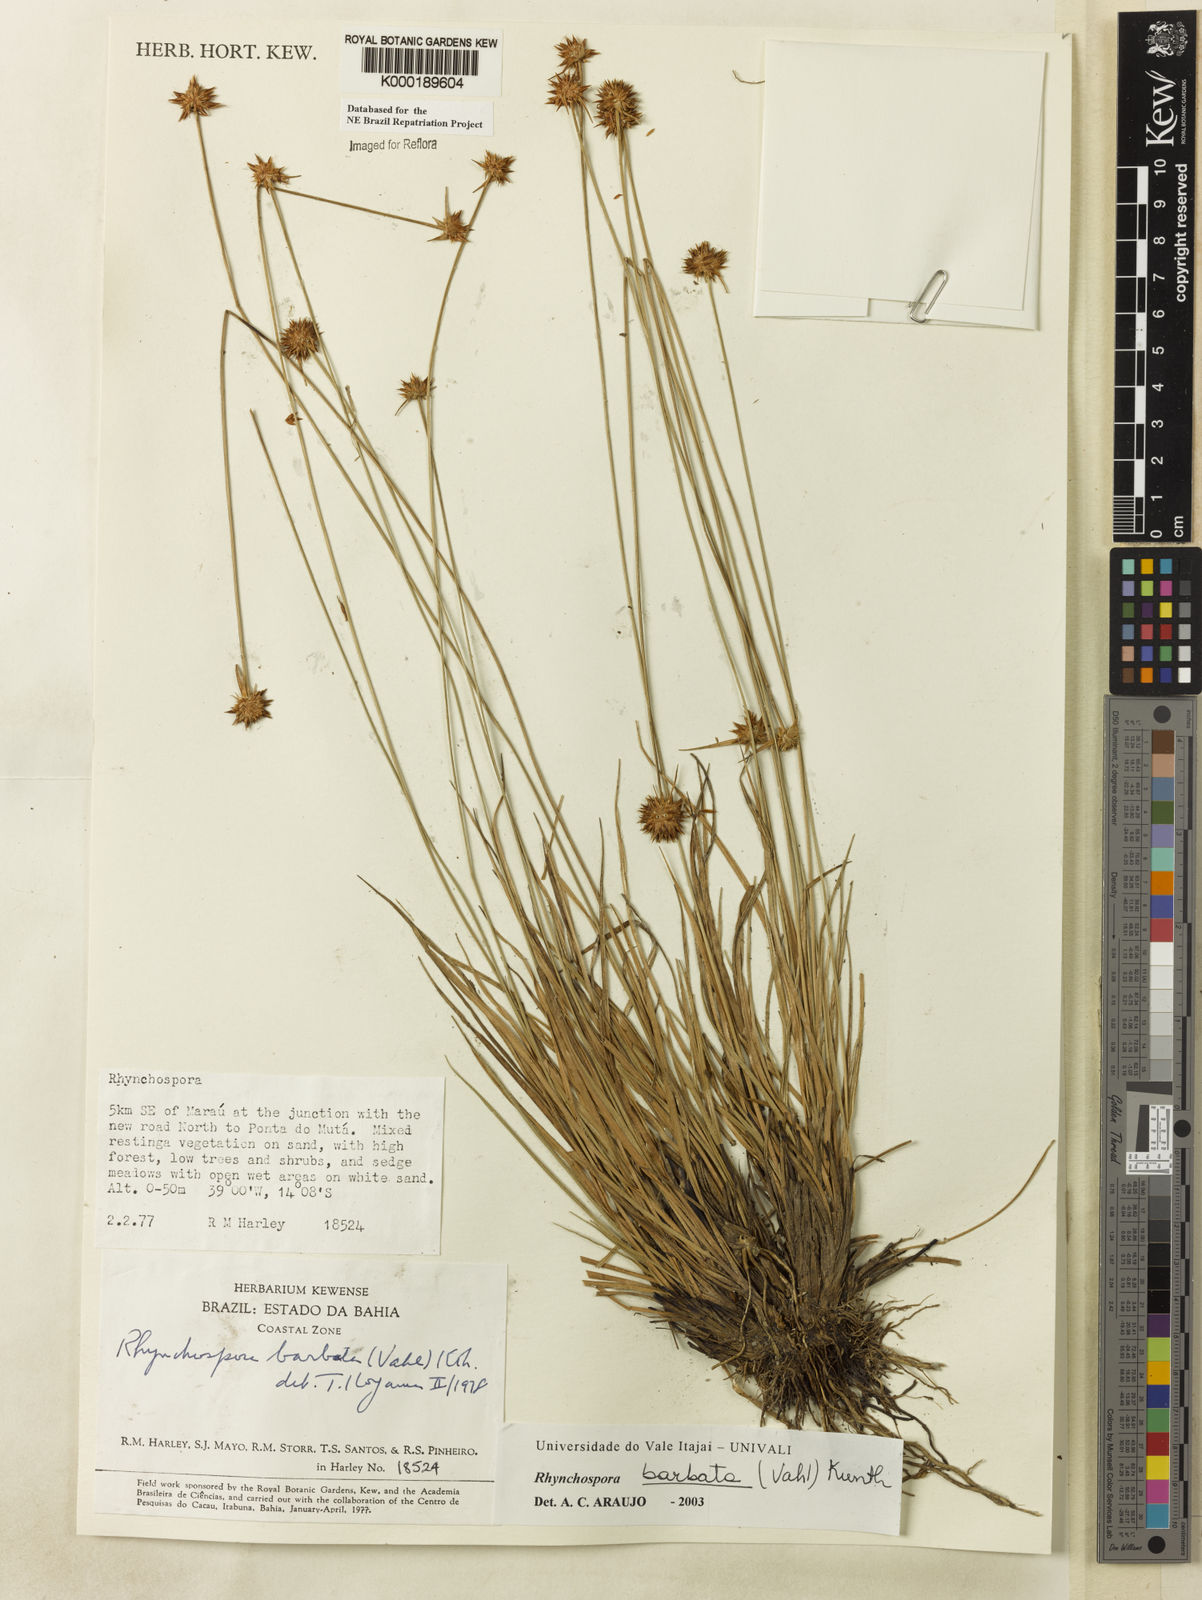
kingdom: Plantae
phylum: Tracheophyta
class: Liliopsida
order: Poales
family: Cyperaceae
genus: Rhynchospora
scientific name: Rhynchospora barbata
